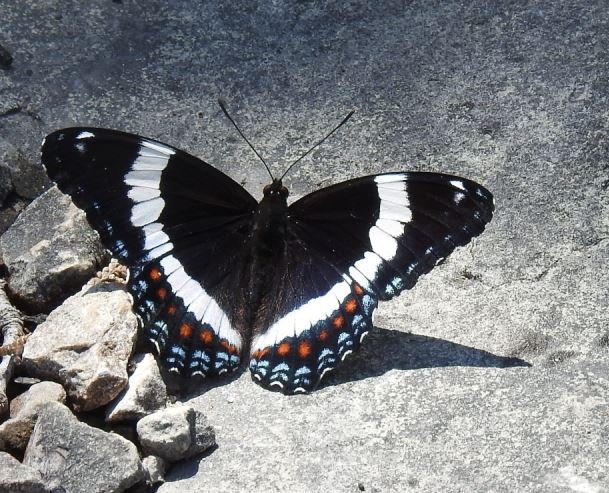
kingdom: Animalia
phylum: Arthropoda
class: Insecta
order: Lepidoptera
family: Nymphalidae
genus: Limenitis
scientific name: Limenitis arthemis
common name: Red-spotted Admiral
